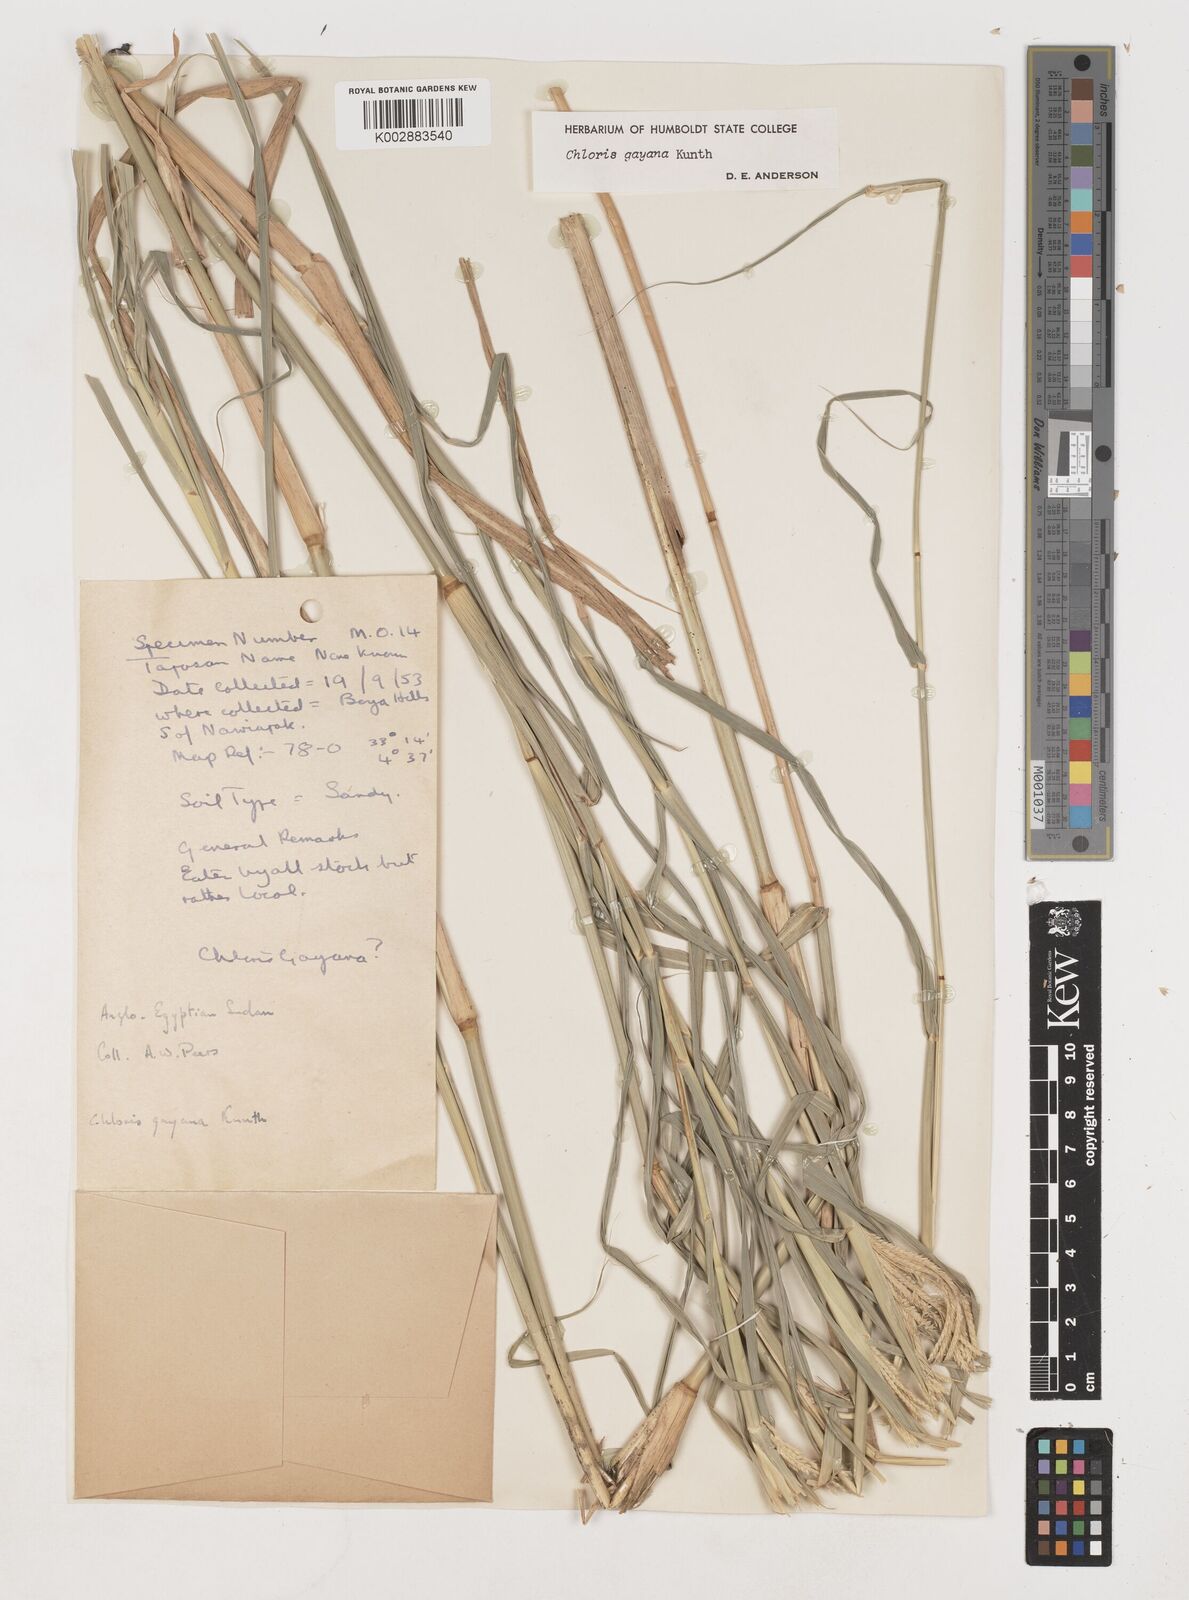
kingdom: Plantae
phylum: Tracheophyta
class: Liliopsida
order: Poales
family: Poaceae
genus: Chloris
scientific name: Chloris gayana
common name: Rhodes grass
